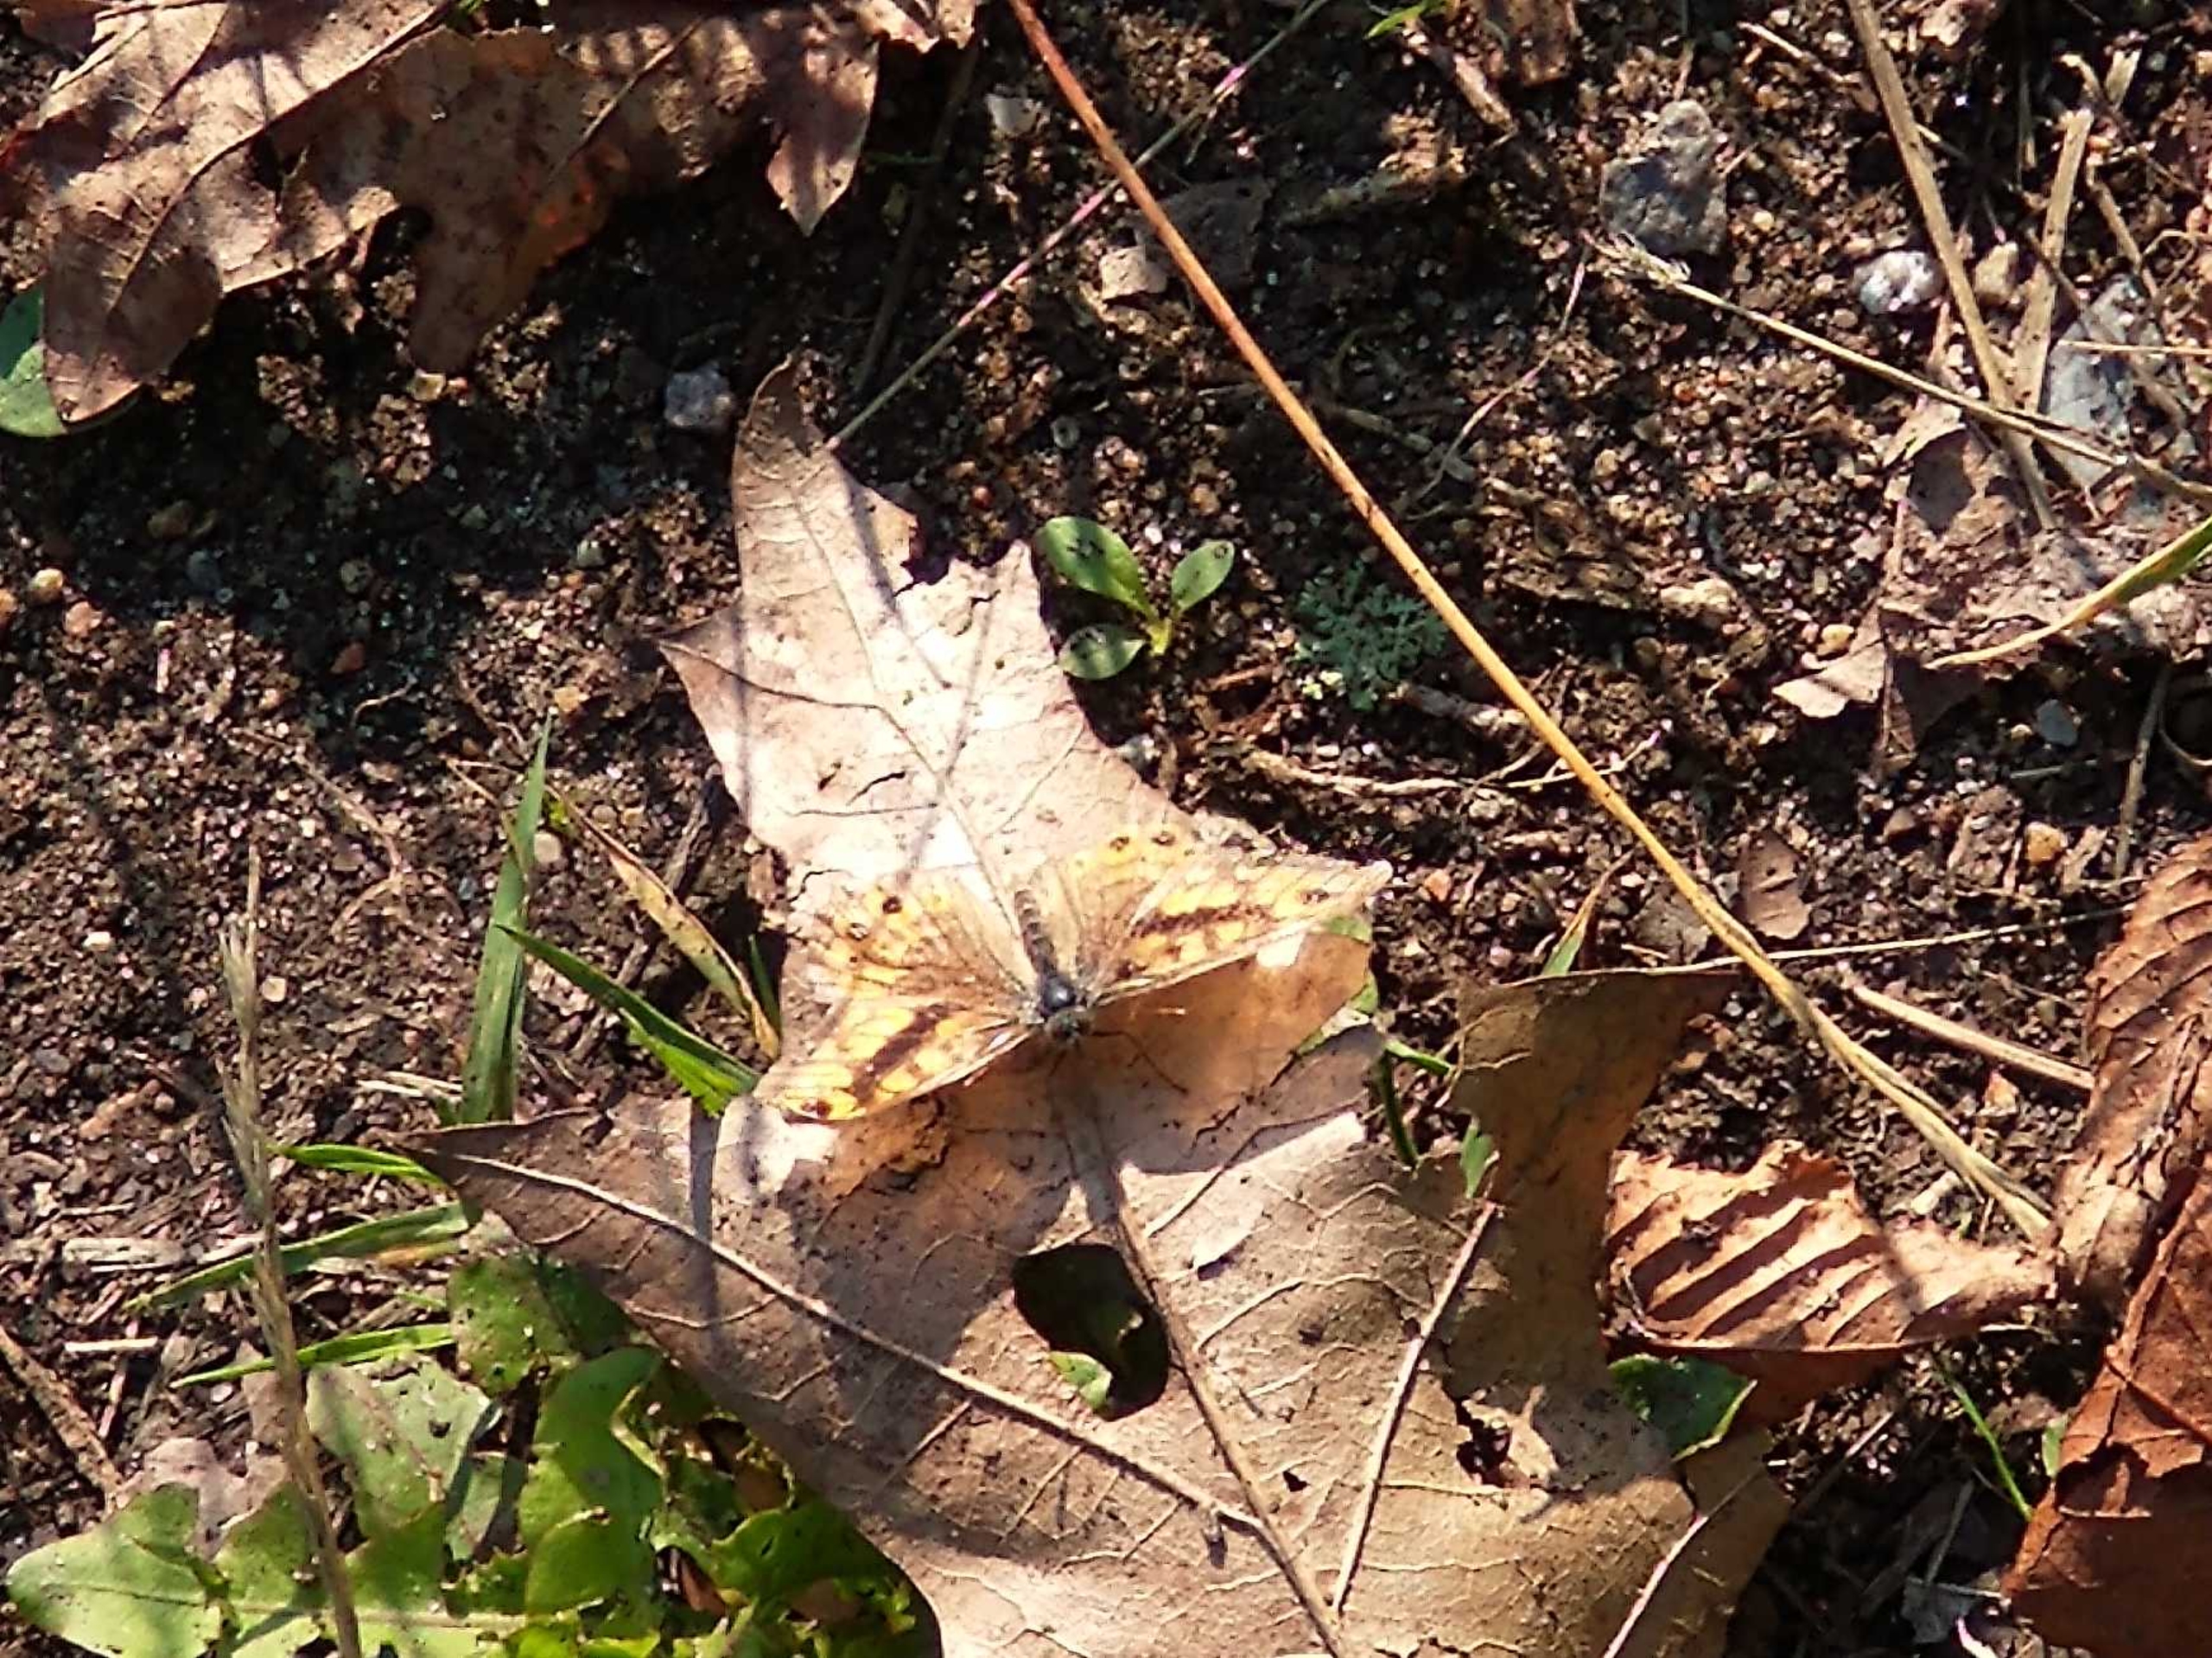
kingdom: Animalia
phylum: Arthropoda
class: Insecta
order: Lepidoptera
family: Nymphalidae
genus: Pararge
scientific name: Pararge Lasiommata megera
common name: Vejrandøje
